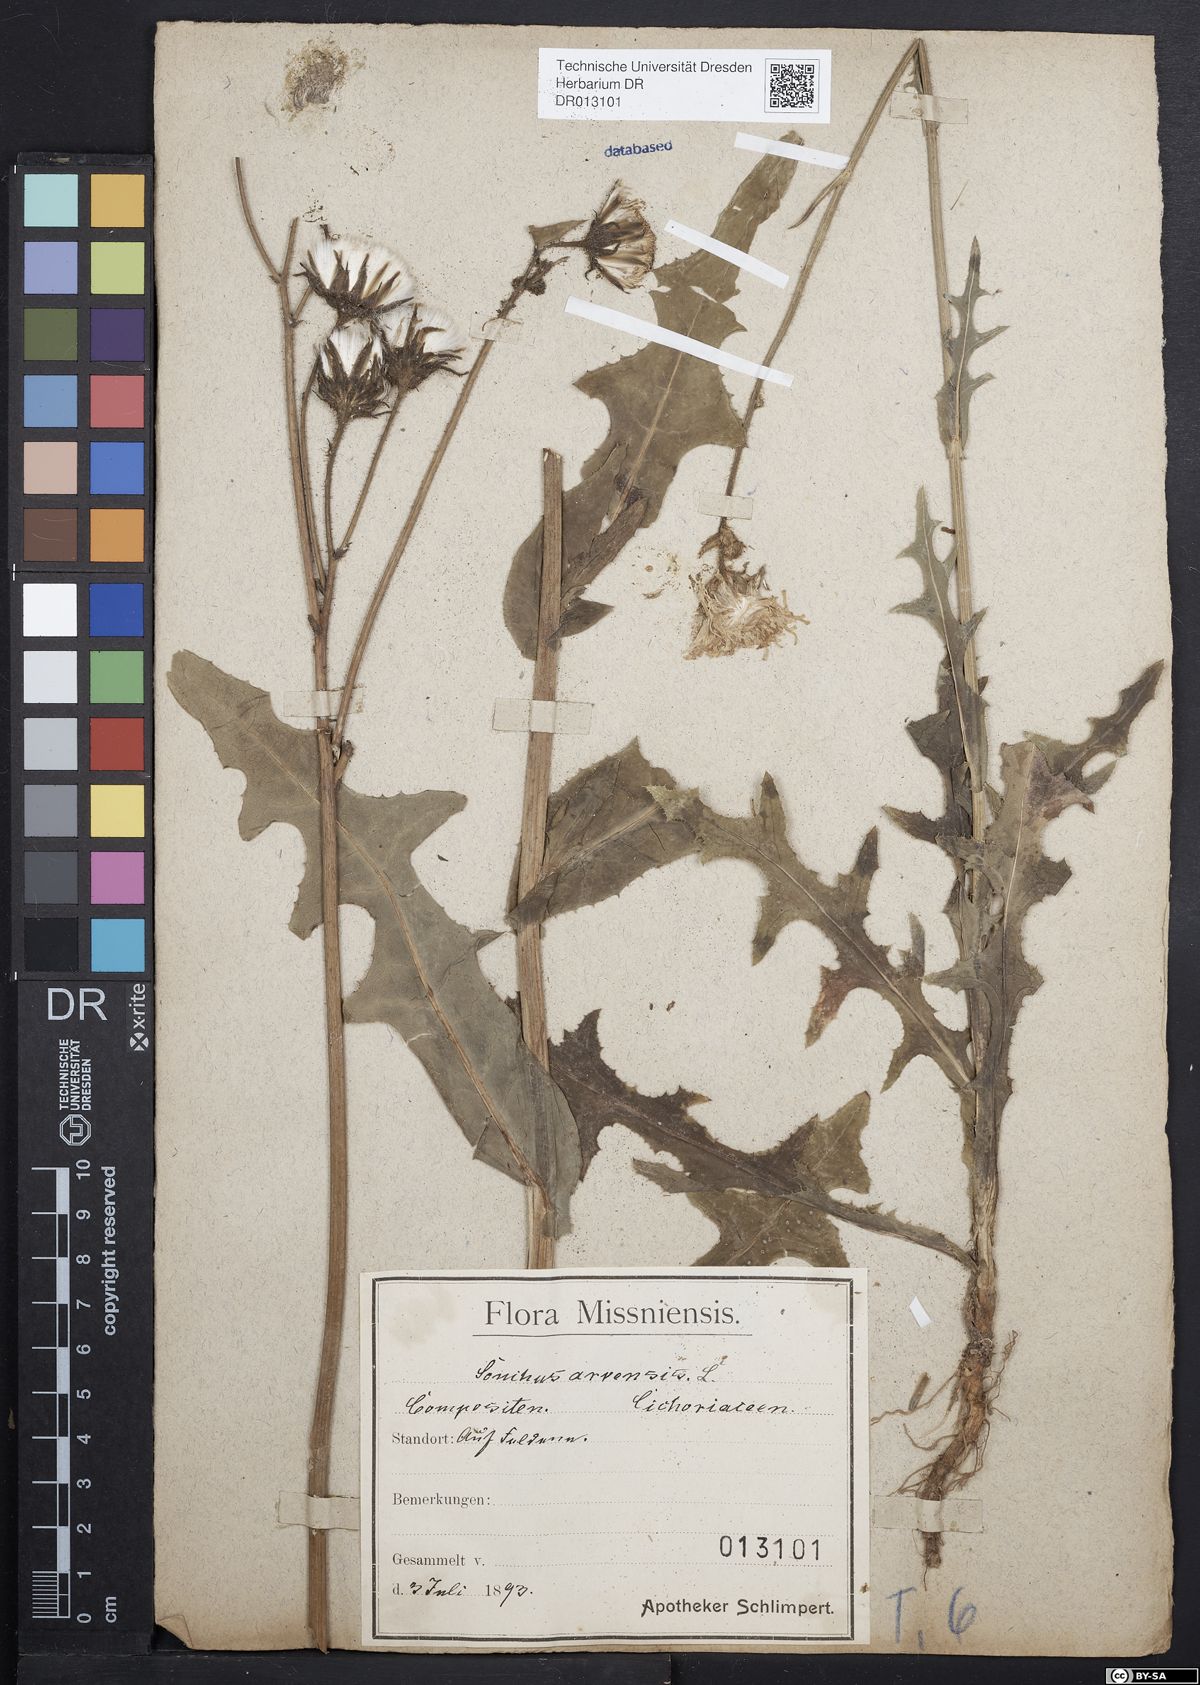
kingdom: Plantae
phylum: Tracheophyta
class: Magnoliopsida
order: Asterales
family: Asteraceae
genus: Sonchus
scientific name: Sonchus arvensis
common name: Perennial sow-thistle
